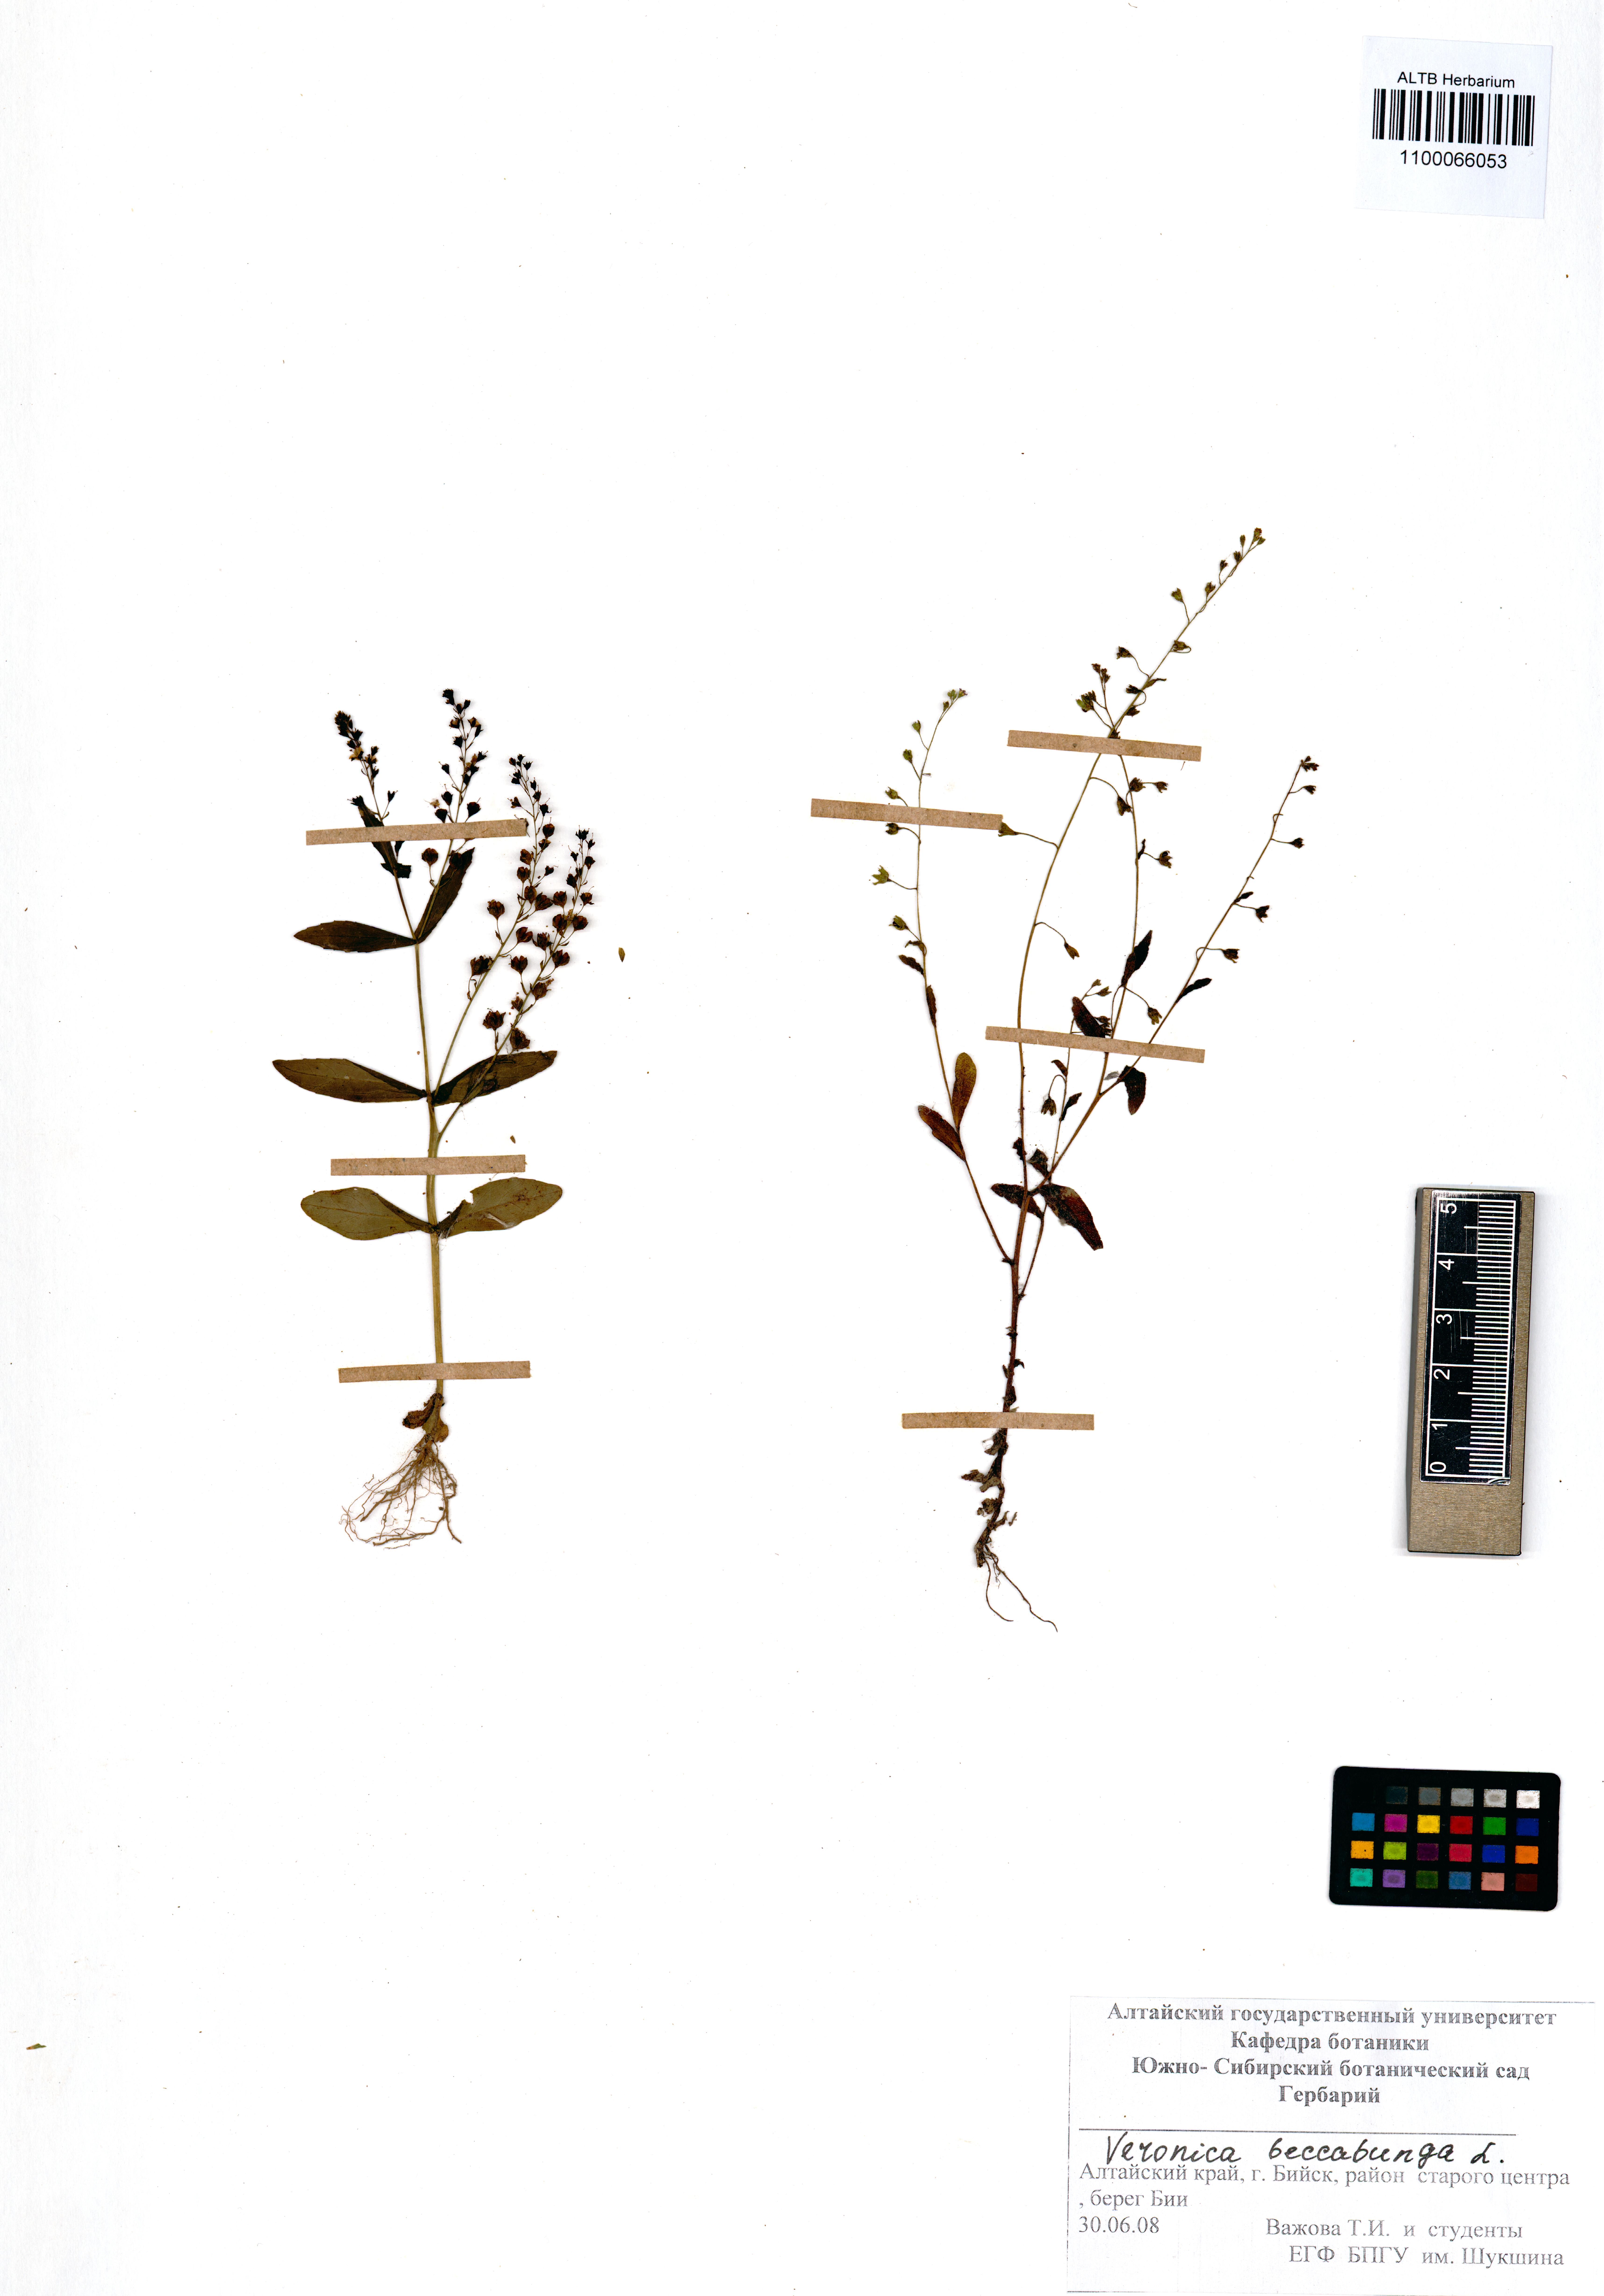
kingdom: Plantae
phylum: Tracheophyta
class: Magnoliopsida
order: Lamiales
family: Plantaginaceae
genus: Veronica
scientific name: Veronica beccabunga
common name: Brooklime
